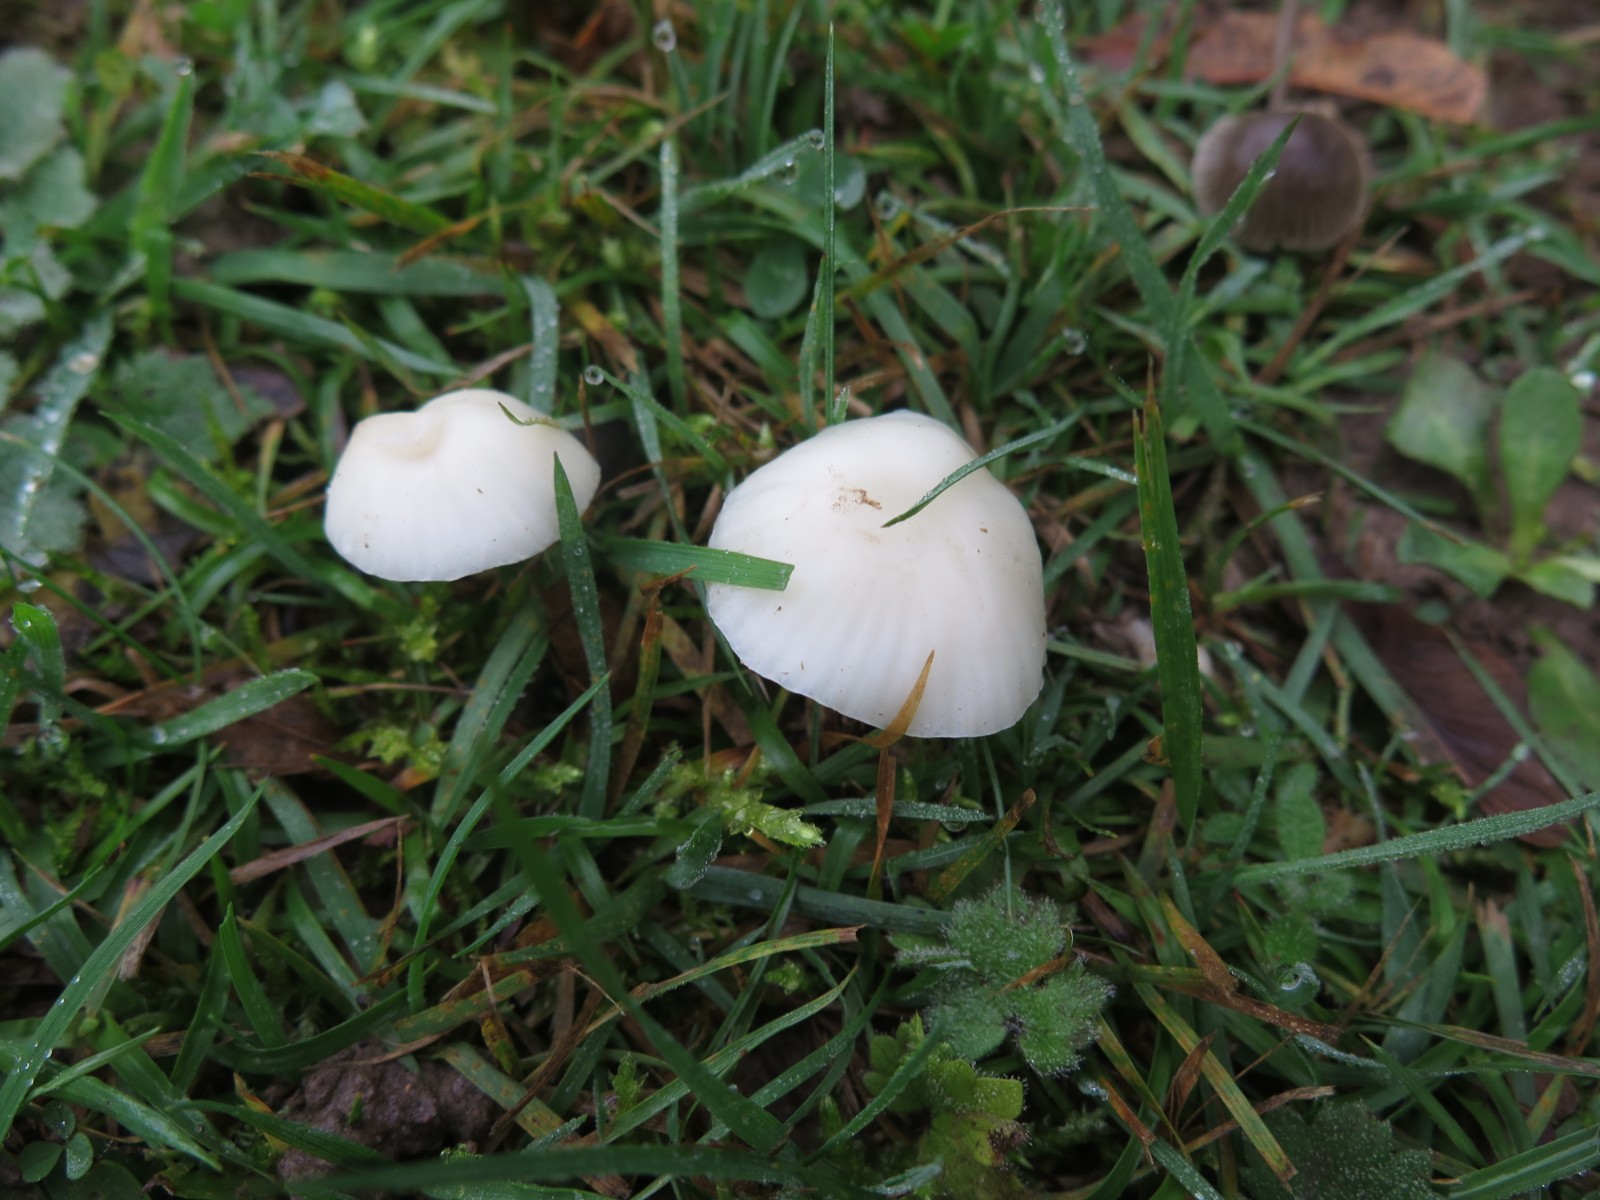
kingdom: Fungi
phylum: Basidiomycota
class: Agaricomycetes
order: Agaricales
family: Hygrophoraceae
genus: Cuphophyllus
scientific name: Cuphophyllus virgineus
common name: snehvid vokshat
